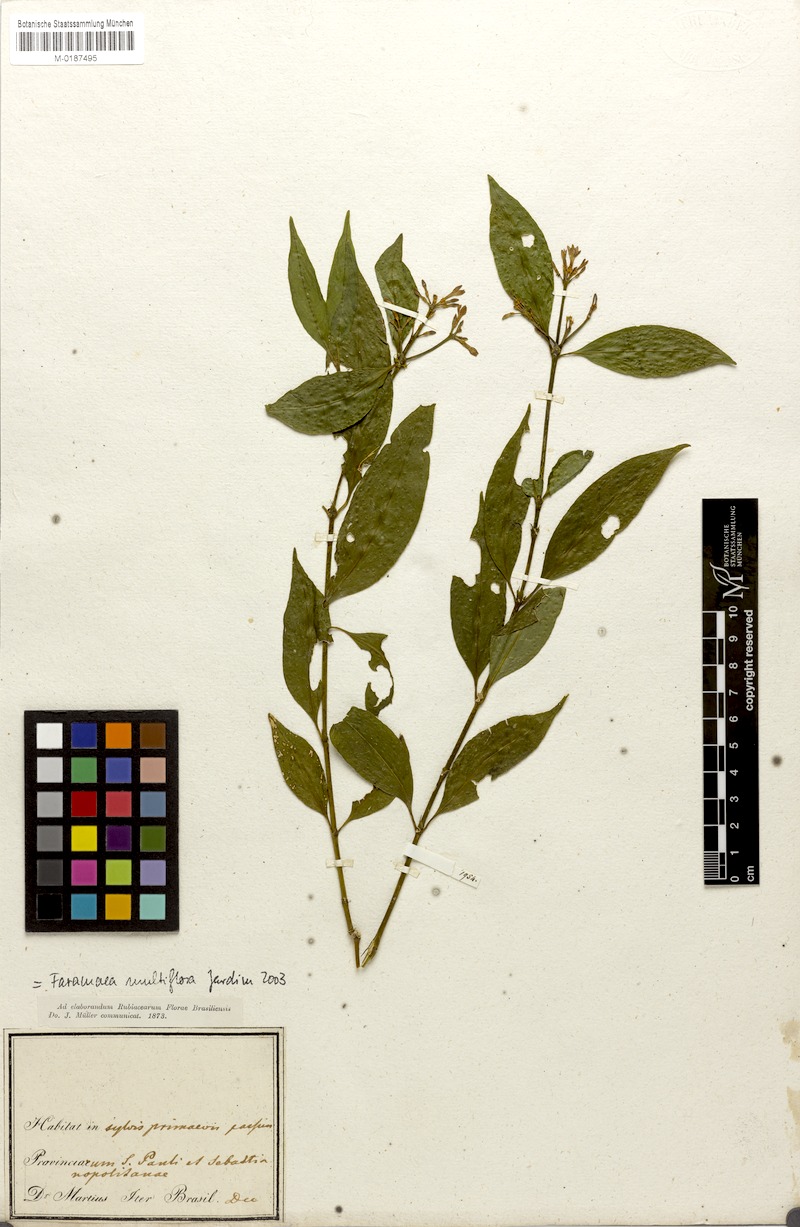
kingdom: Plantae
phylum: Tracheophyta
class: Magnoliopsida
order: Gentianales
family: Rubiaceae
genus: Faramea
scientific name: Faramea multiflora
